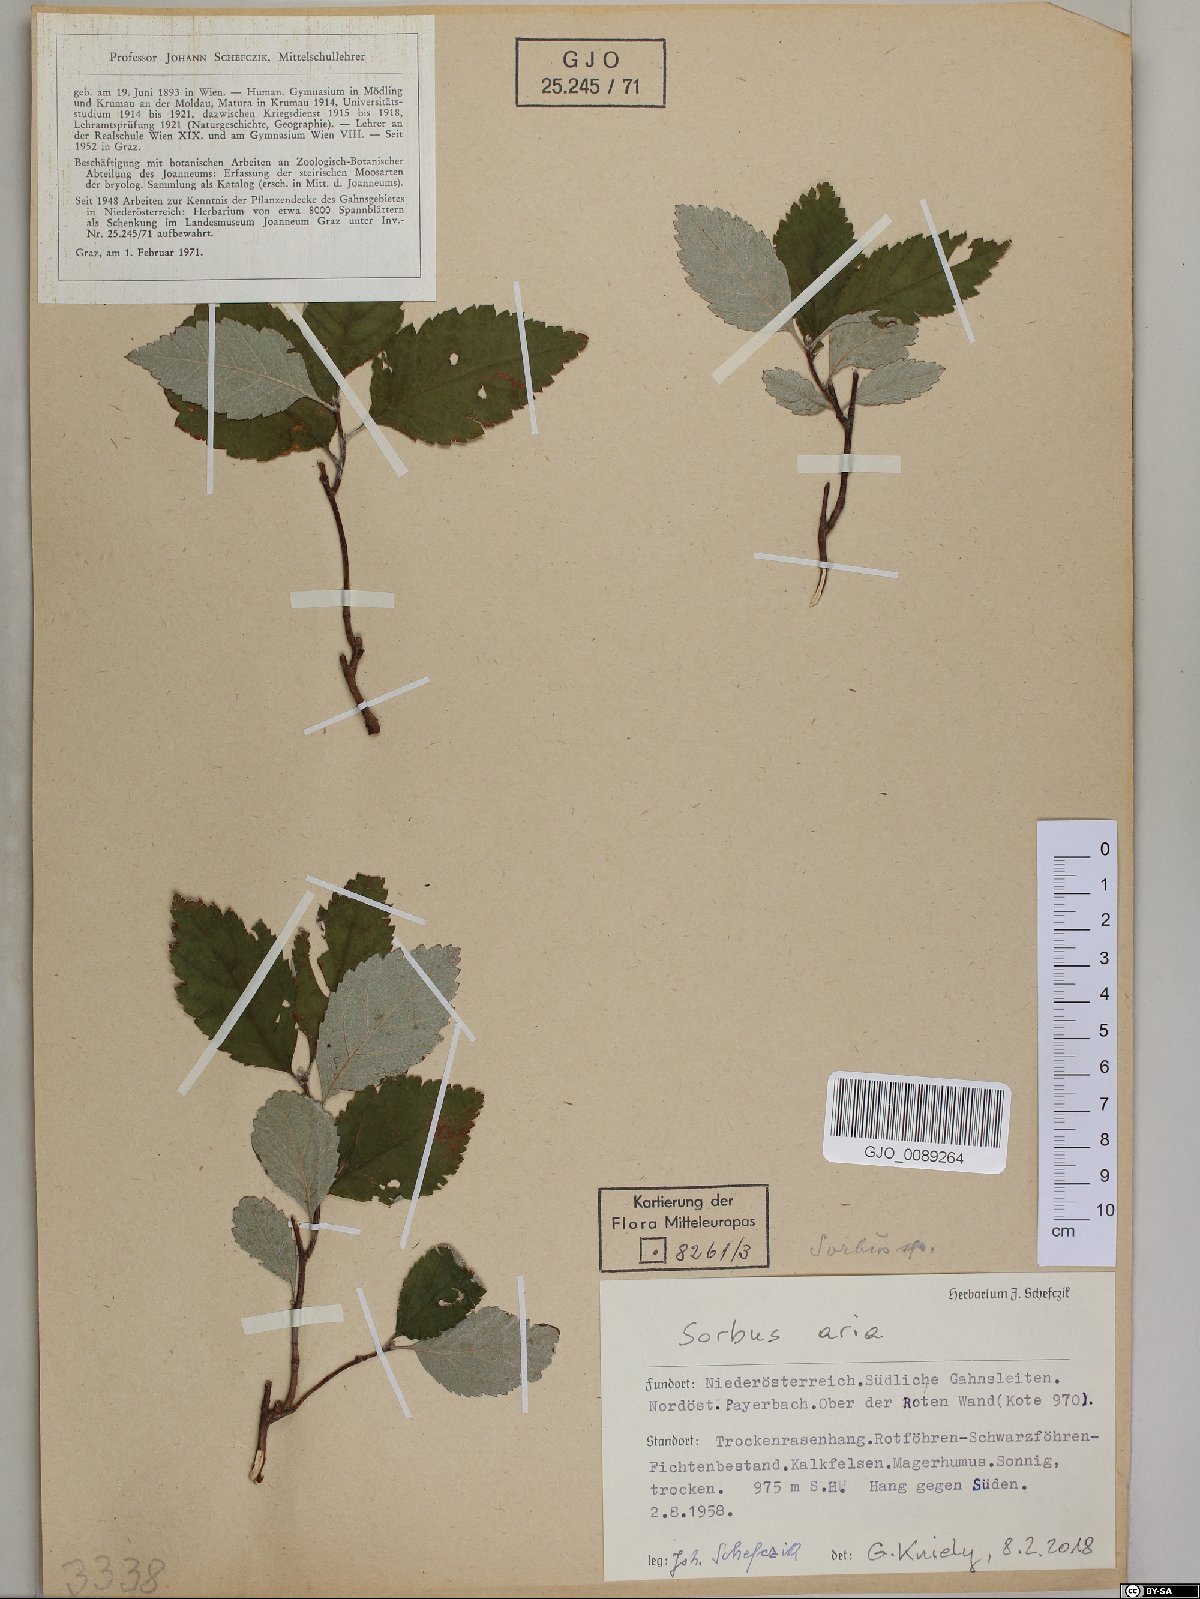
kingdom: Plantae
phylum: Tracheophyta
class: Magnoliopsida
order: Rosales
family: Rosaceae
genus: Aria
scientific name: Aria edulis
